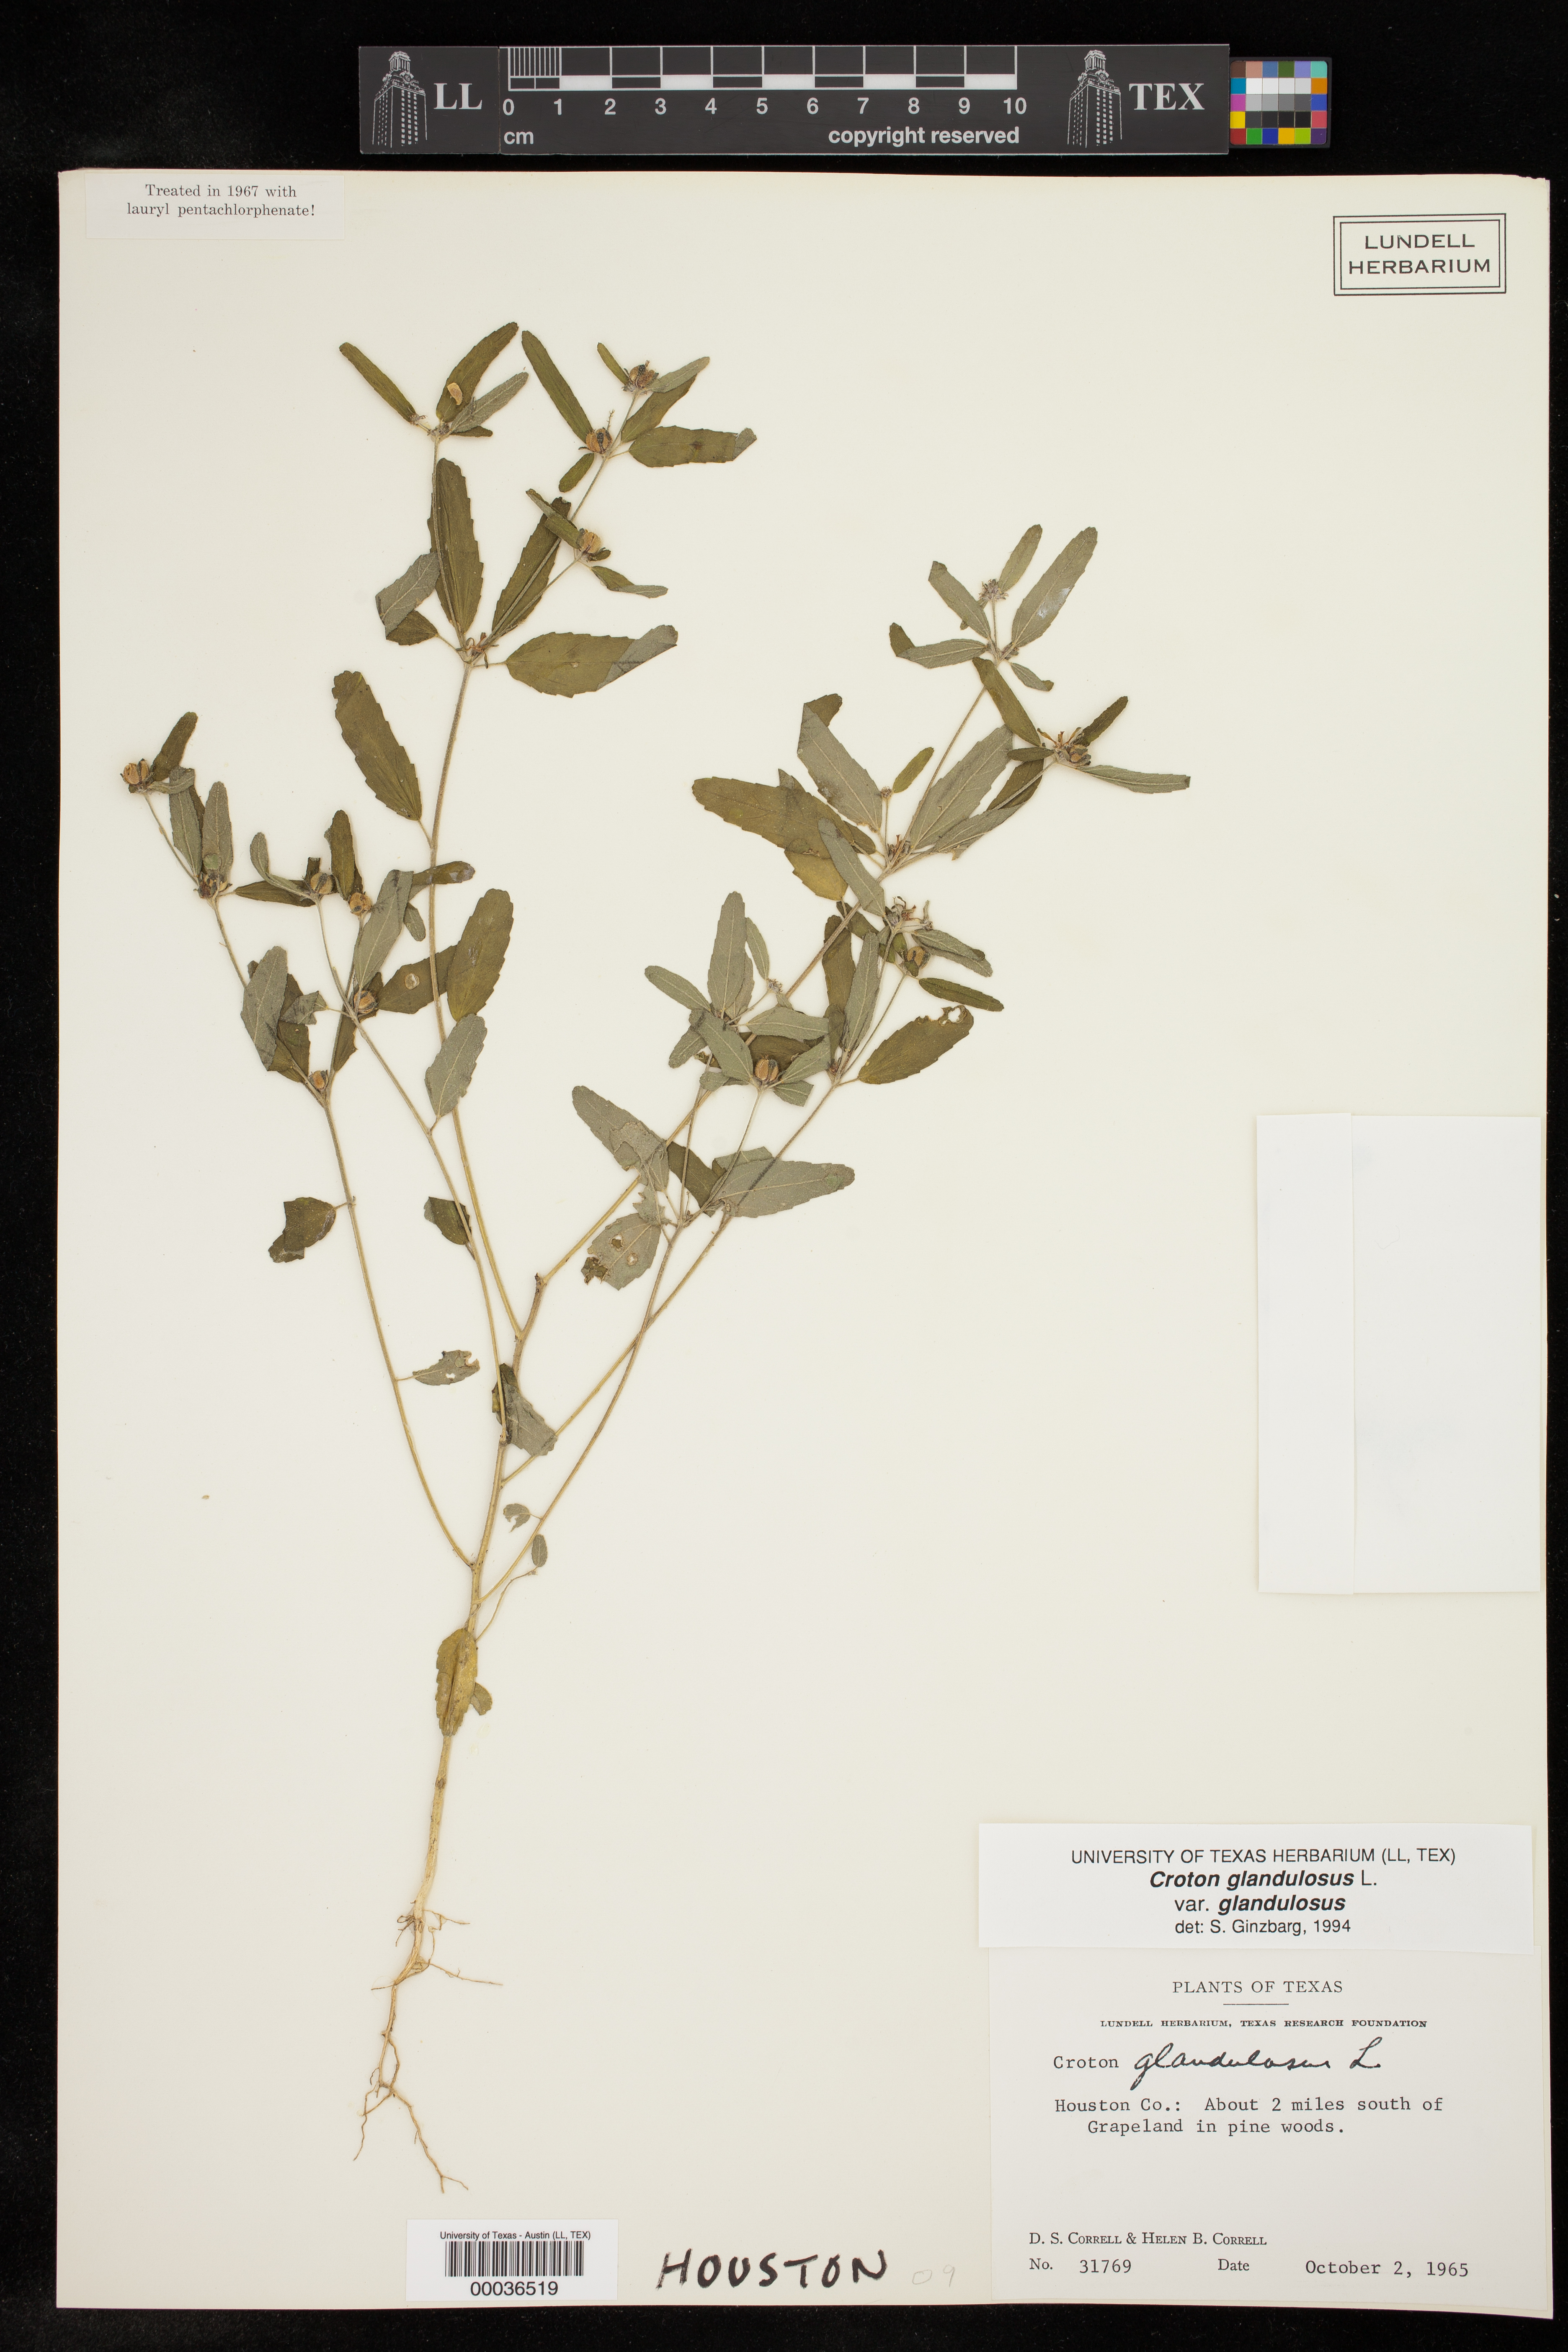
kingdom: Plantae
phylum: Tracheophyta
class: Magnoliopsida
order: Malpighiales
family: Euphorbiaceae
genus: Croton
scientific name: Croton glandulosus
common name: Tropic croton
